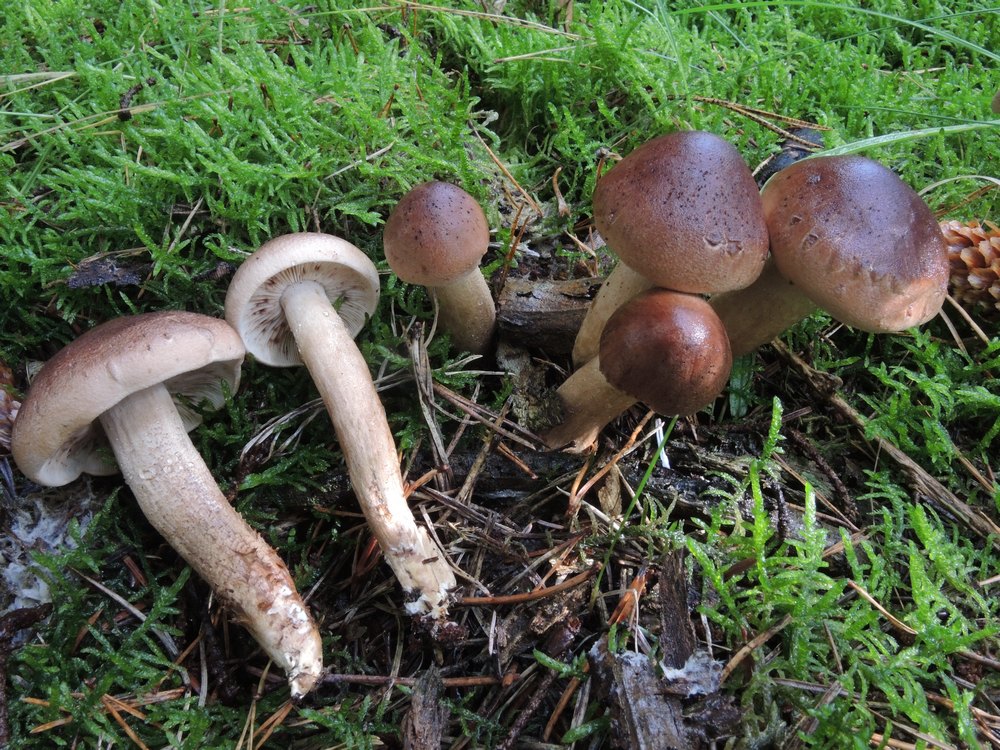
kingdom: Fungi
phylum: Basidiomycota
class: Agaricomycetes
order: Agaricales
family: Tricholomataceae
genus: Tricholoma
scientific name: Tricholoma imbricatum
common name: skællet ridderhat
